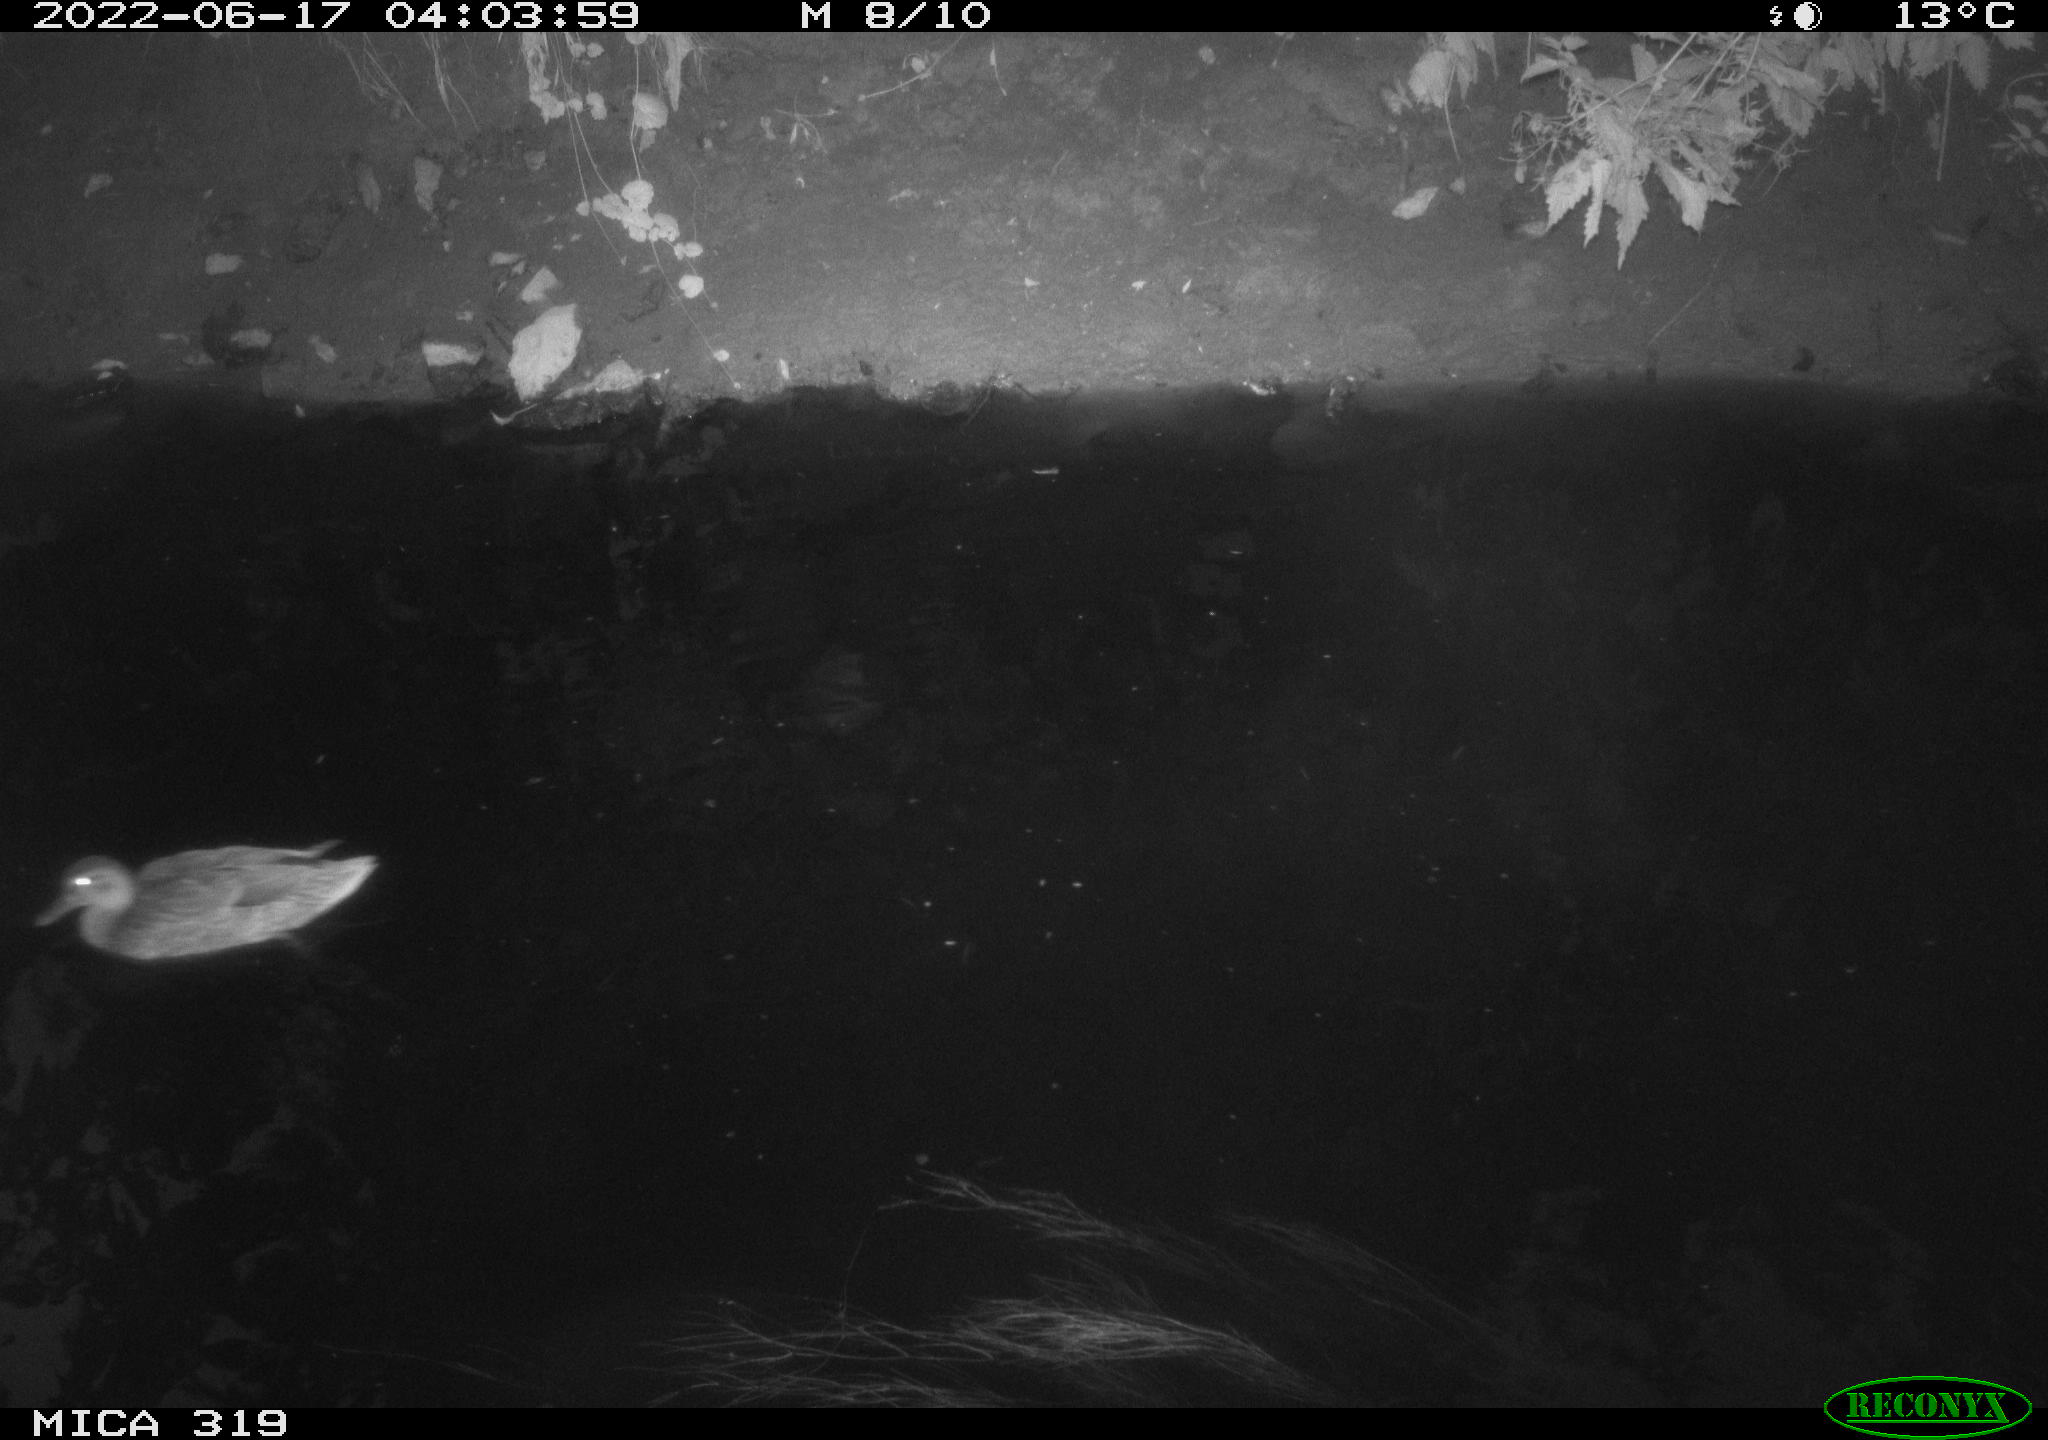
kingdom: Animalia
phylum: Chordata
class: Aves
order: Anseriformes
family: Anatidae
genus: Anas
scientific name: Anas
